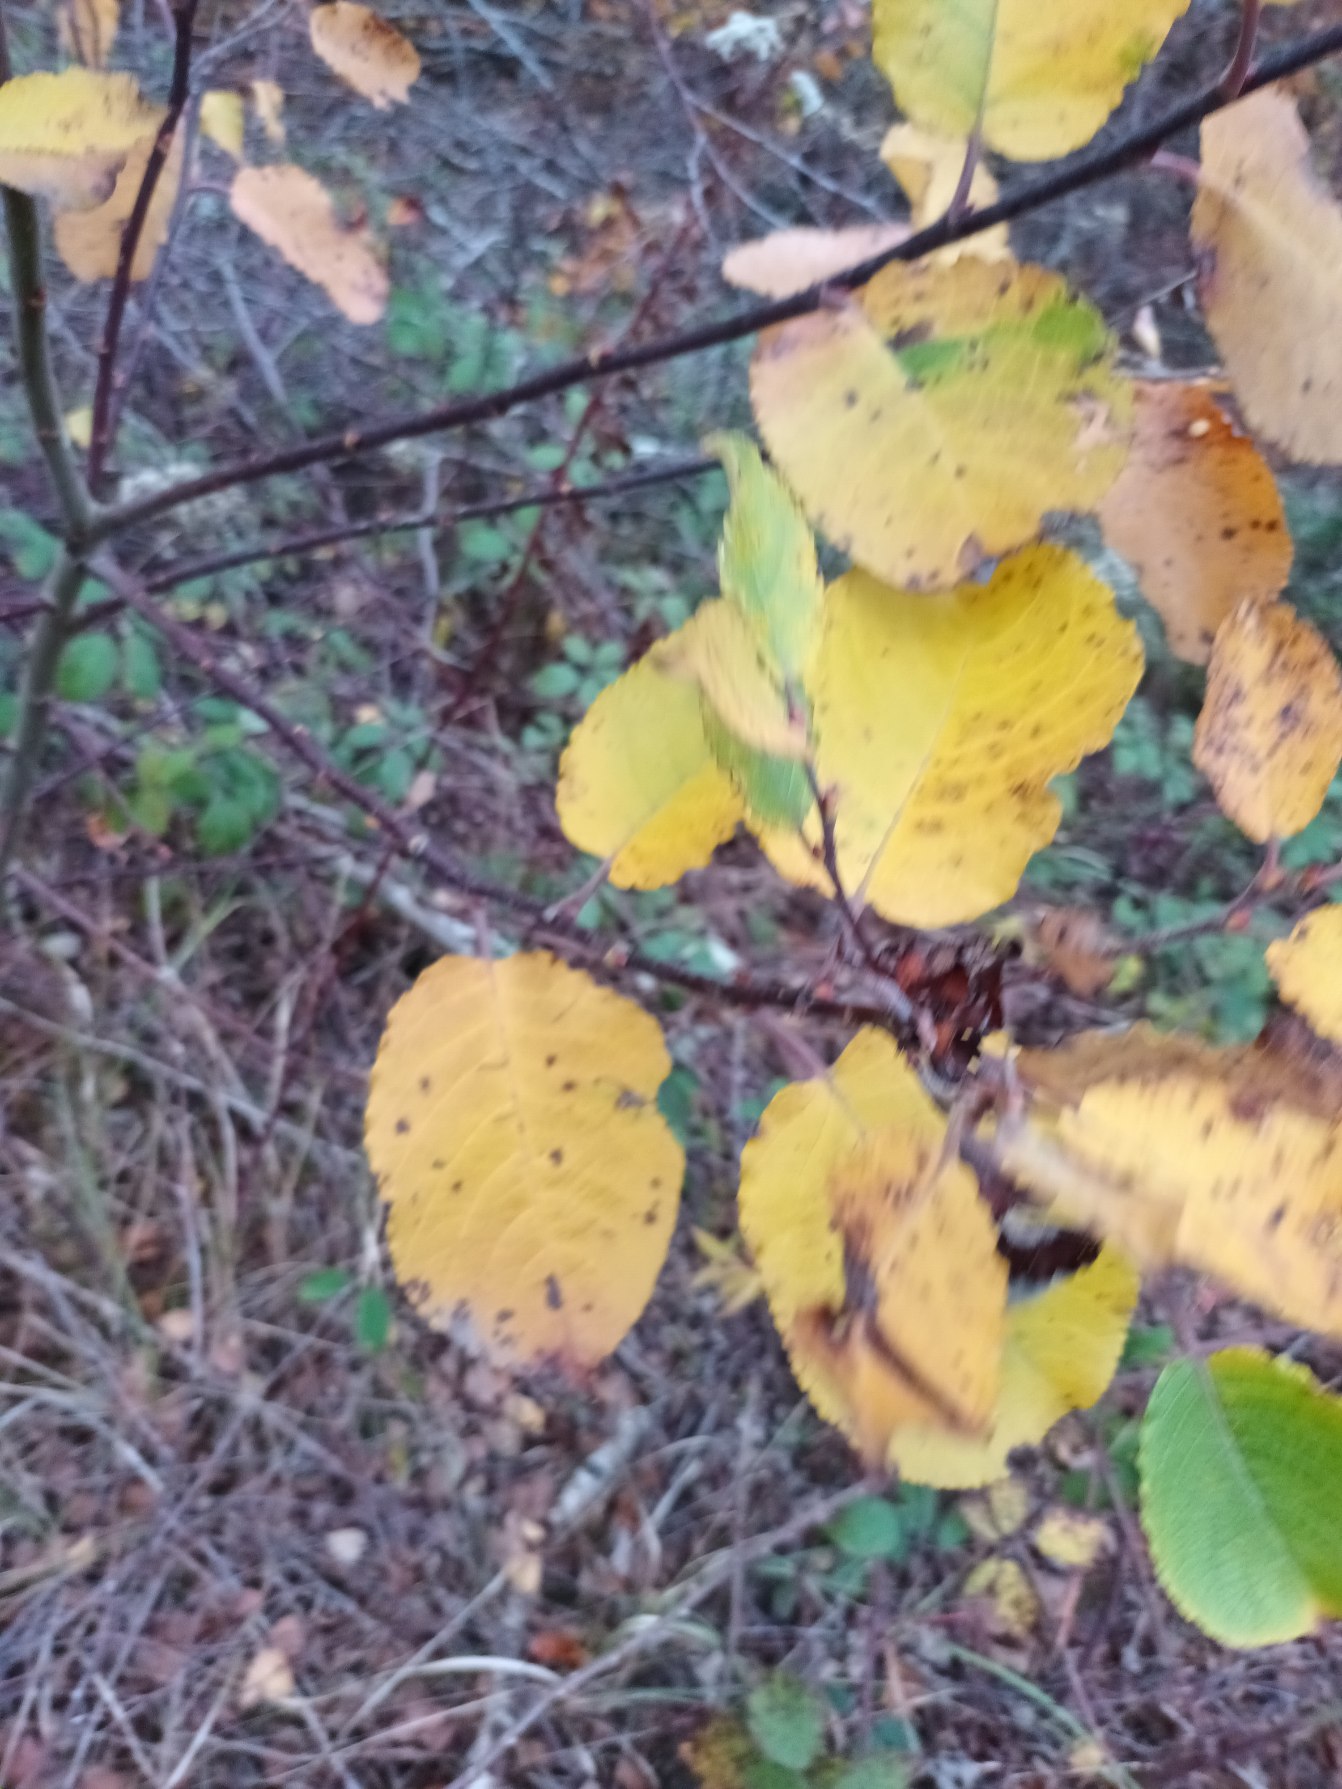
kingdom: Plantae
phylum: Tracheophyta
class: Magnoliopsida
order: Malpighiales
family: Salicaceae
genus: Salix
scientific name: Salix caprea
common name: Selje-pil
